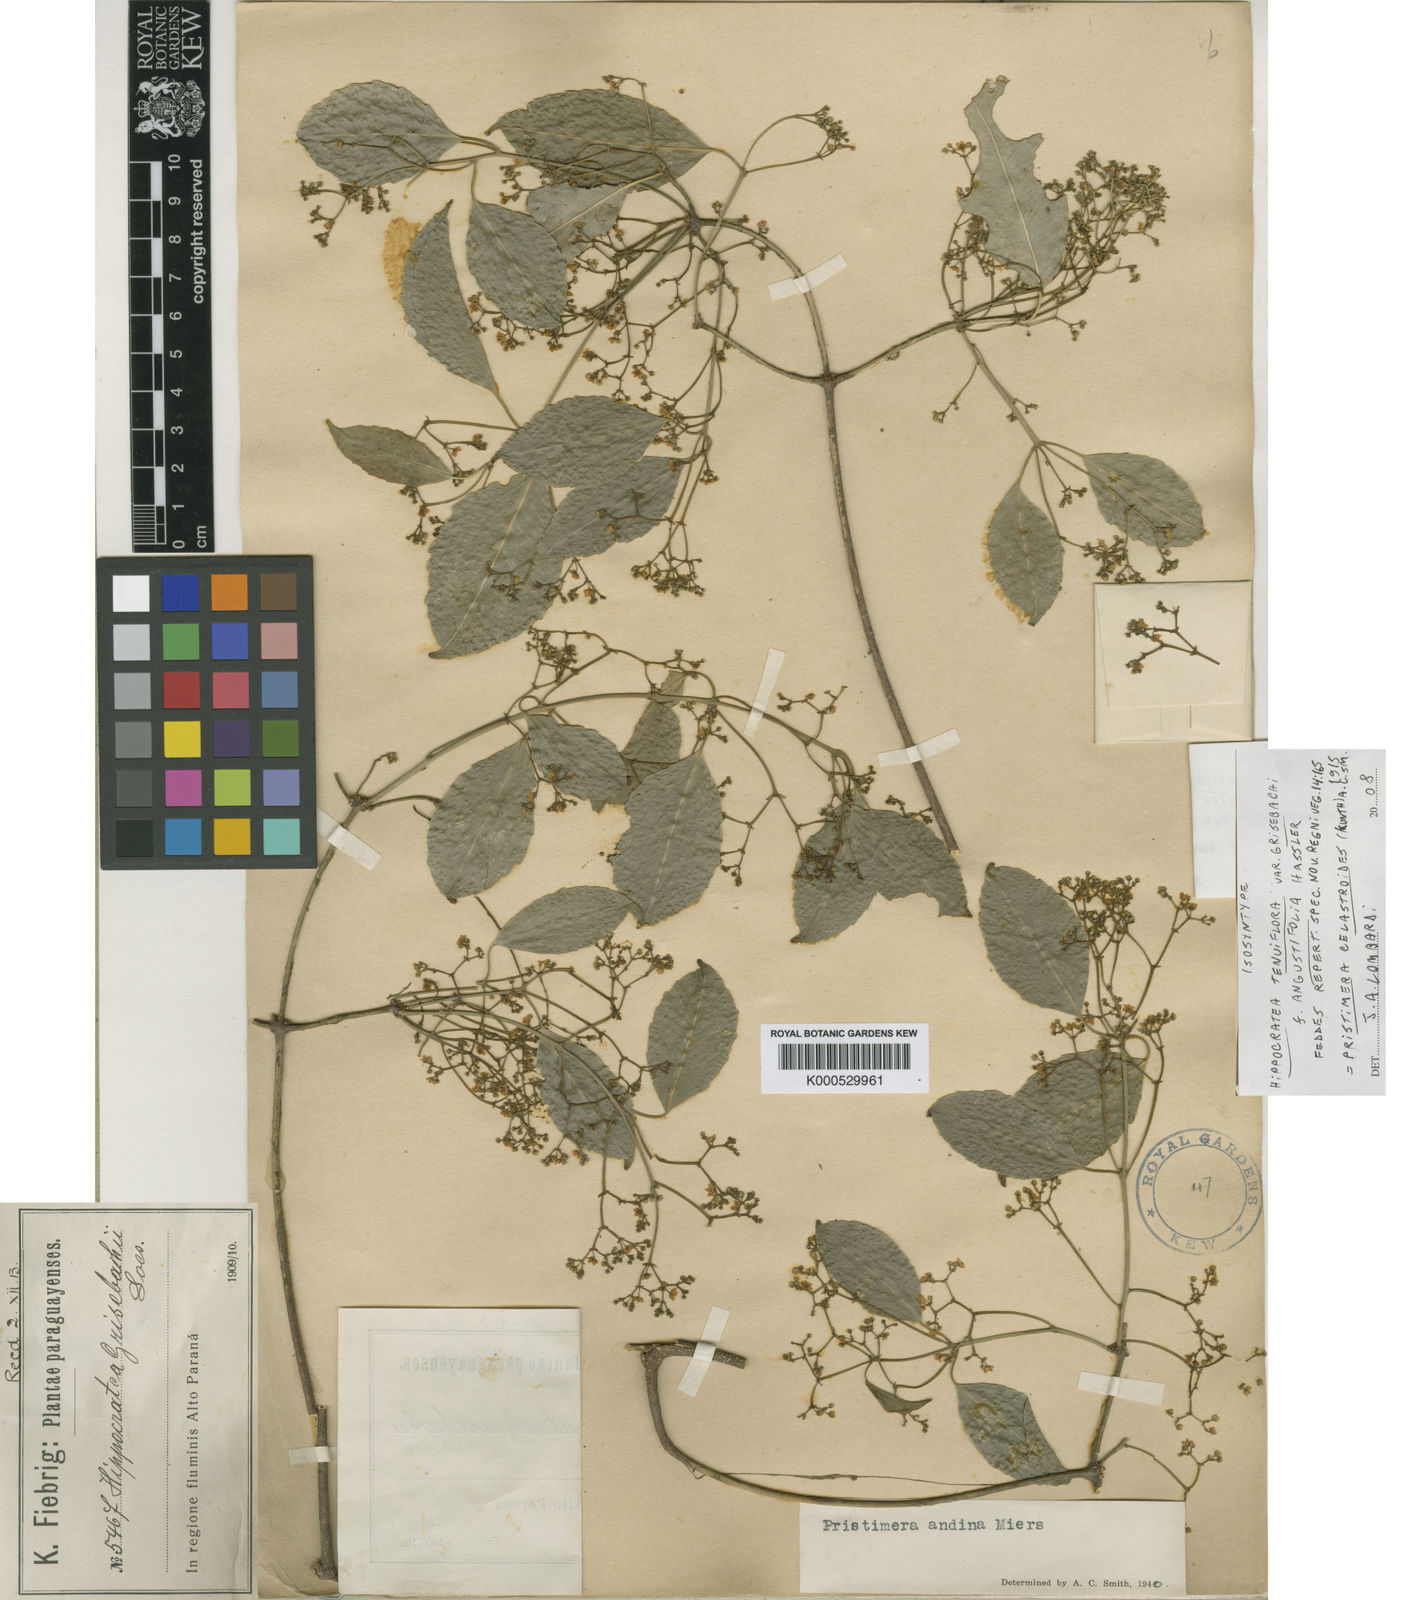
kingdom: Plantae
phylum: Tracheophyta
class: Magnoliopsida
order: Celastrales
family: Celastraceae
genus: Pristimera
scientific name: Pristimera celastroides
